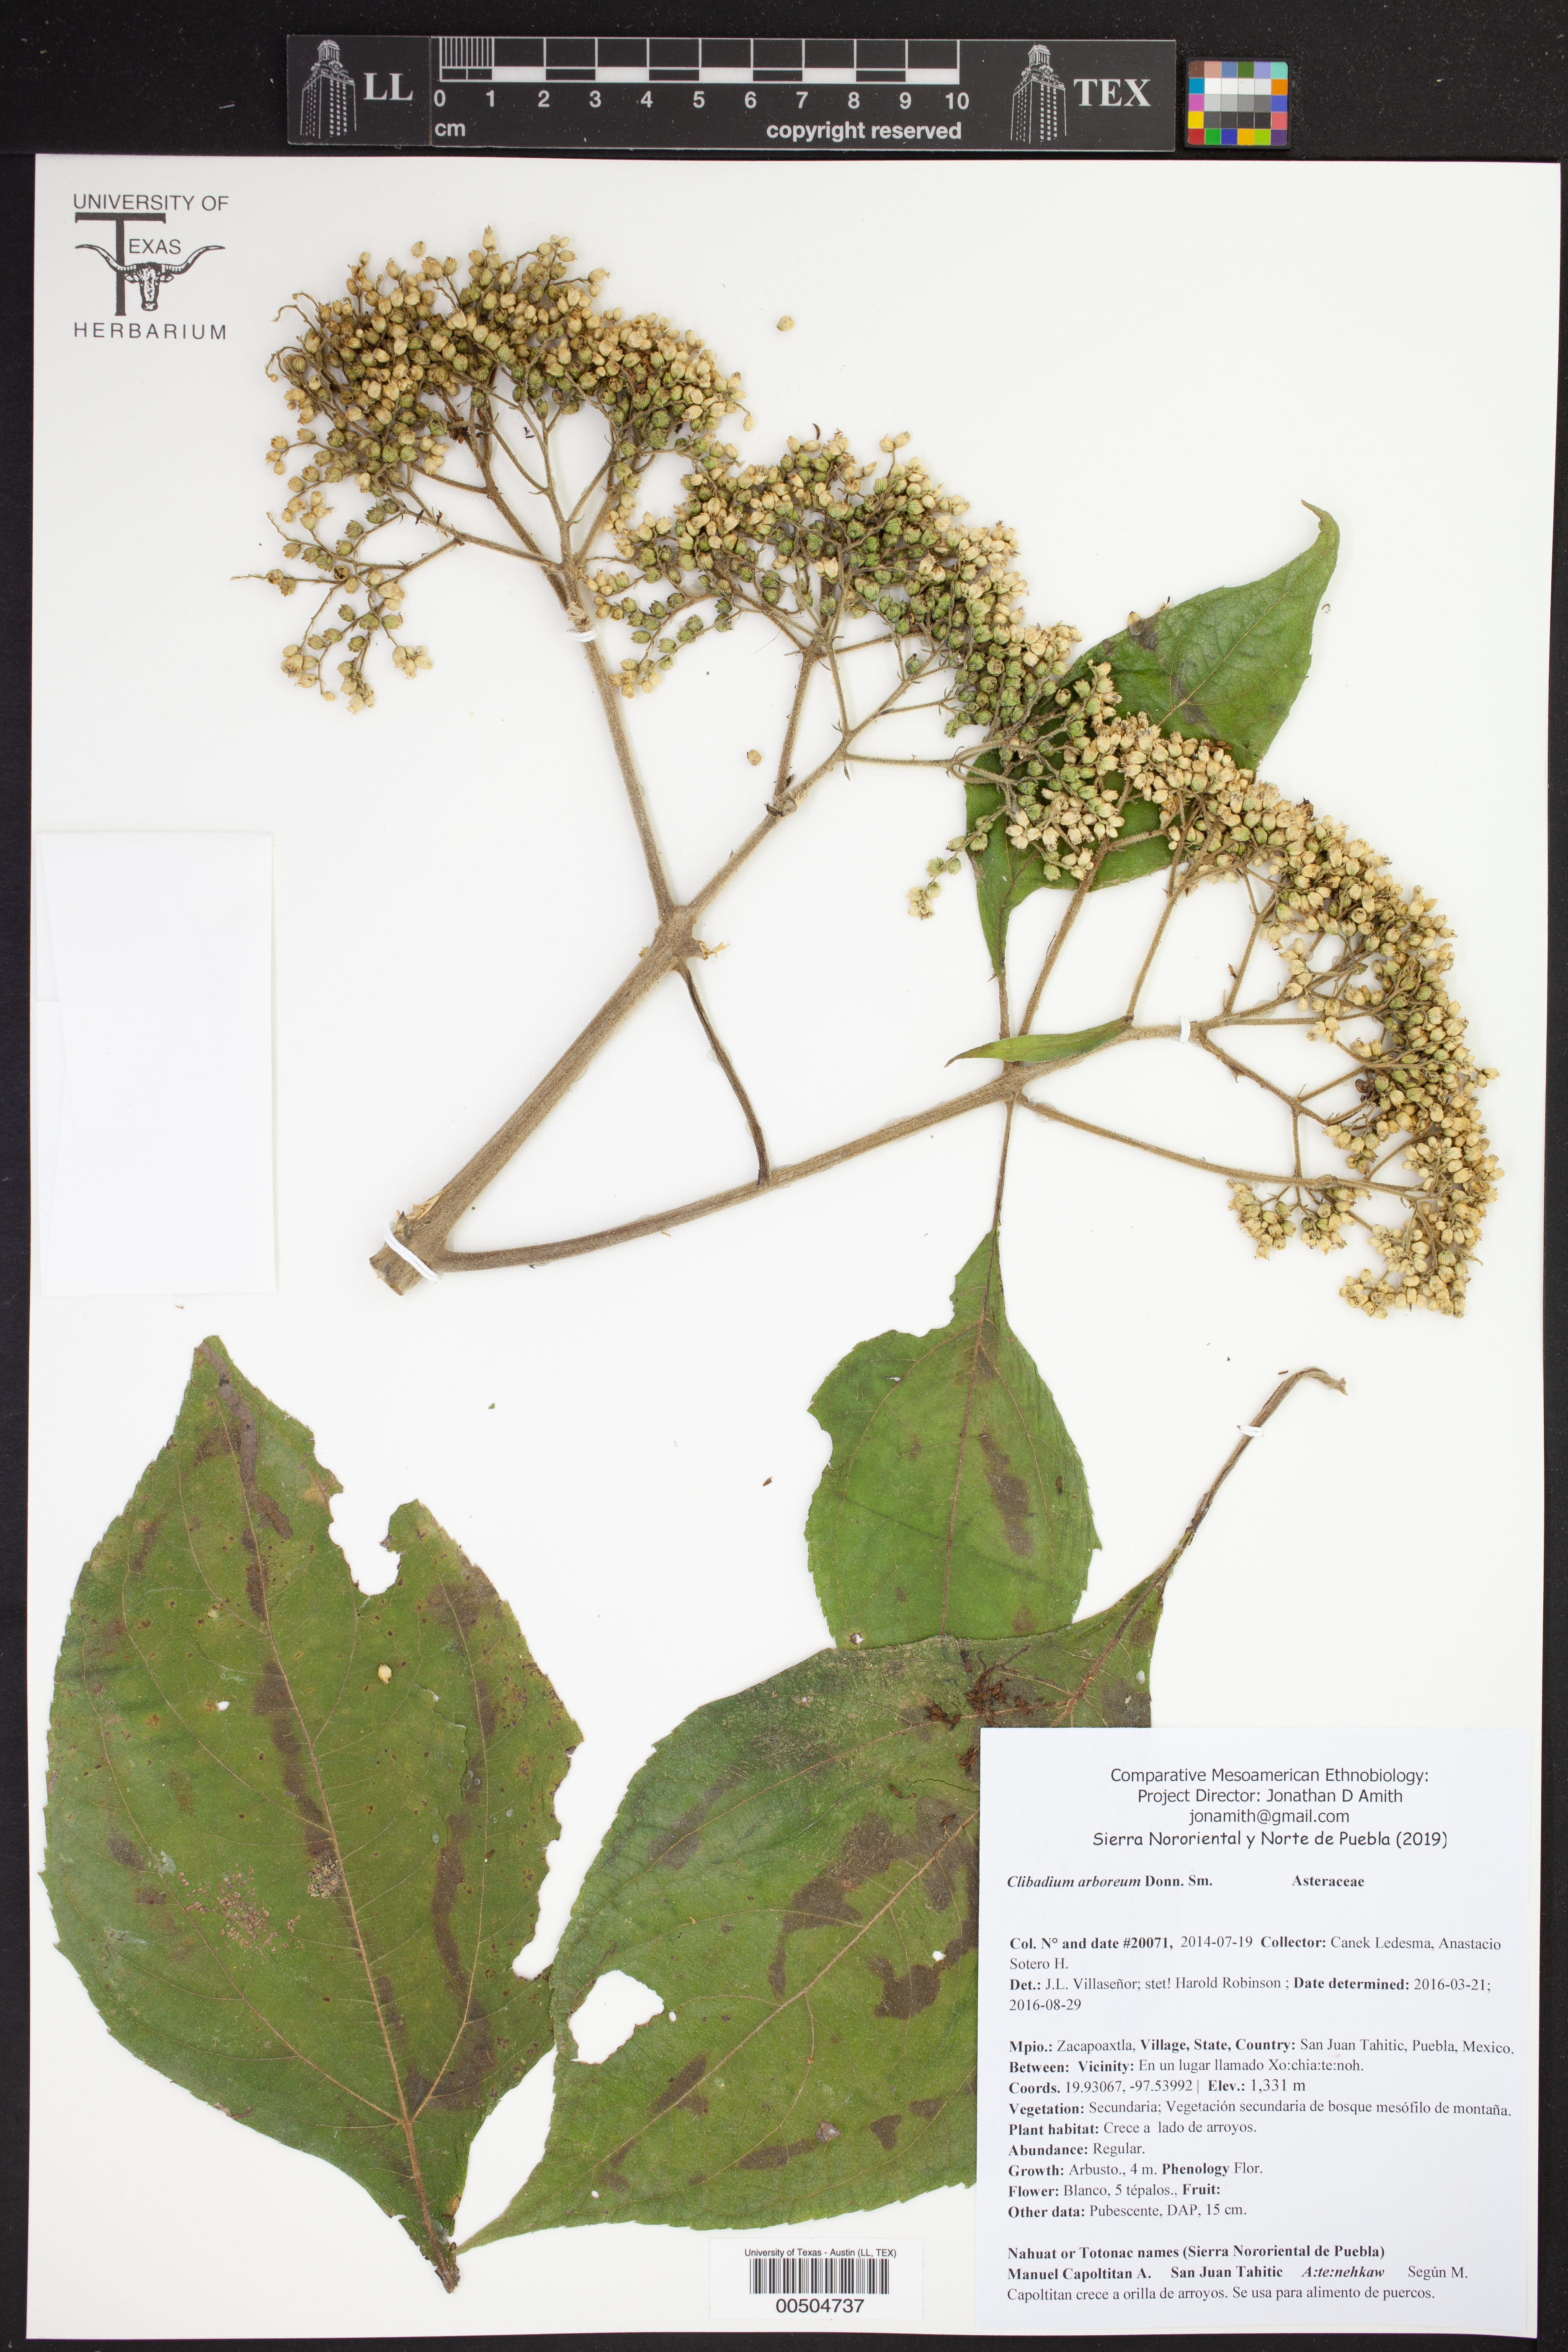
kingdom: Plantae
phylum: Tracheophyta
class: Magnoliopsida
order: Asterales
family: Asteraceae
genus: Clibadium
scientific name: Clibadium arboreum
